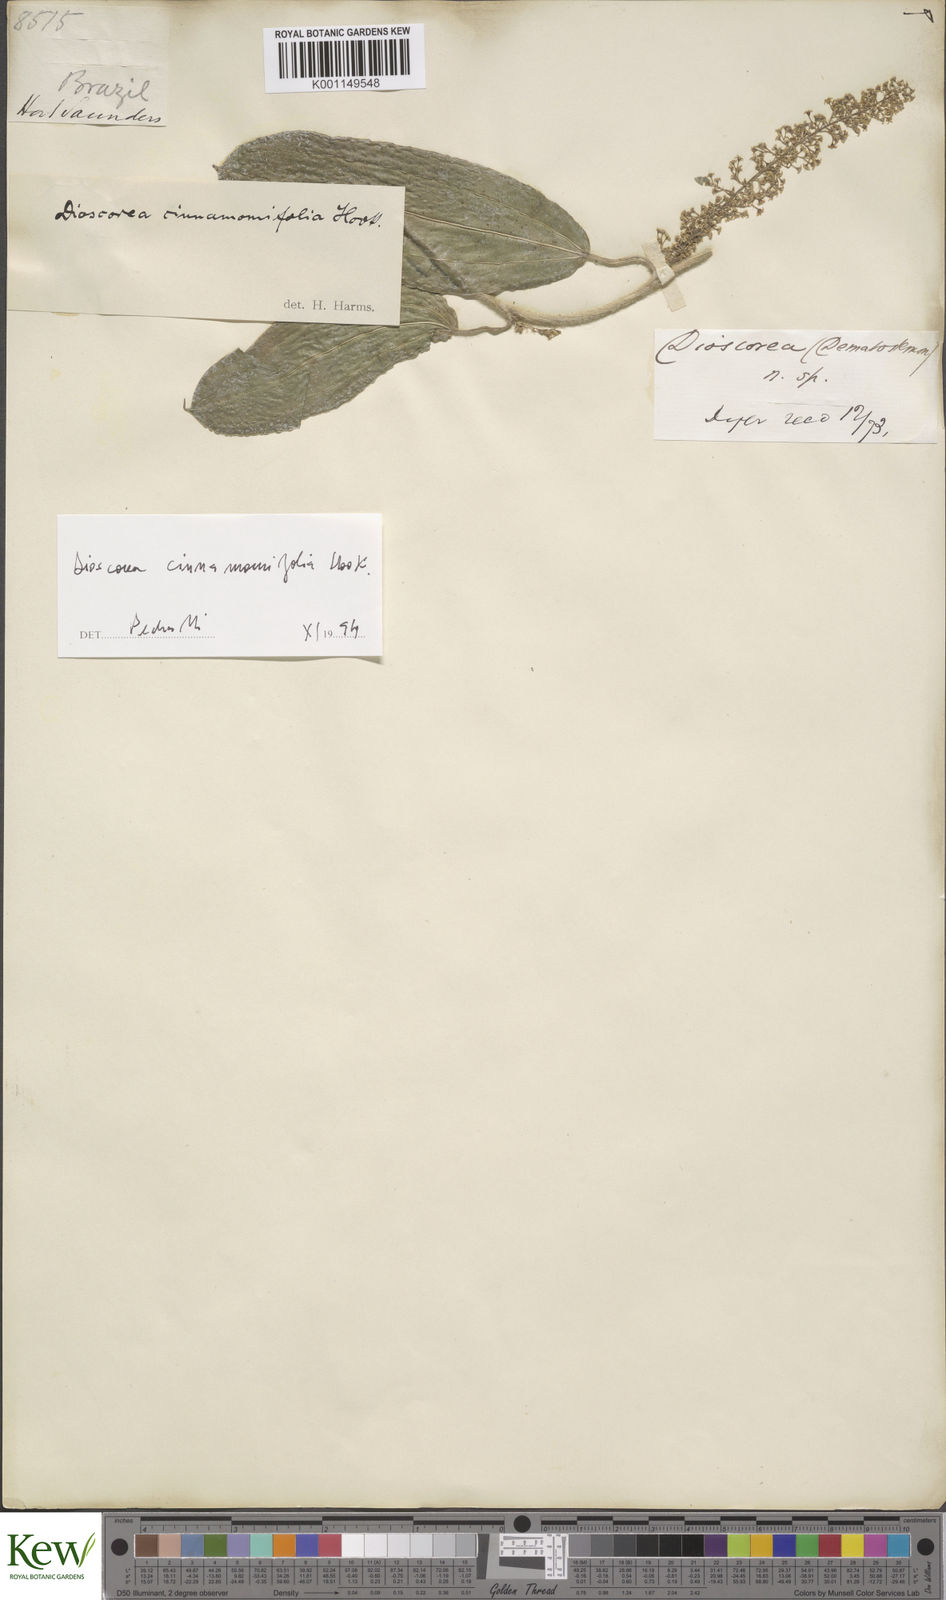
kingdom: Plantae
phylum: Tracheophyta
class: Liliopsida
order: Dioscoreales
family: Dioscoreaceae
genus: Dioscorea
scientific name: Dioscorea cinnamomifolia
